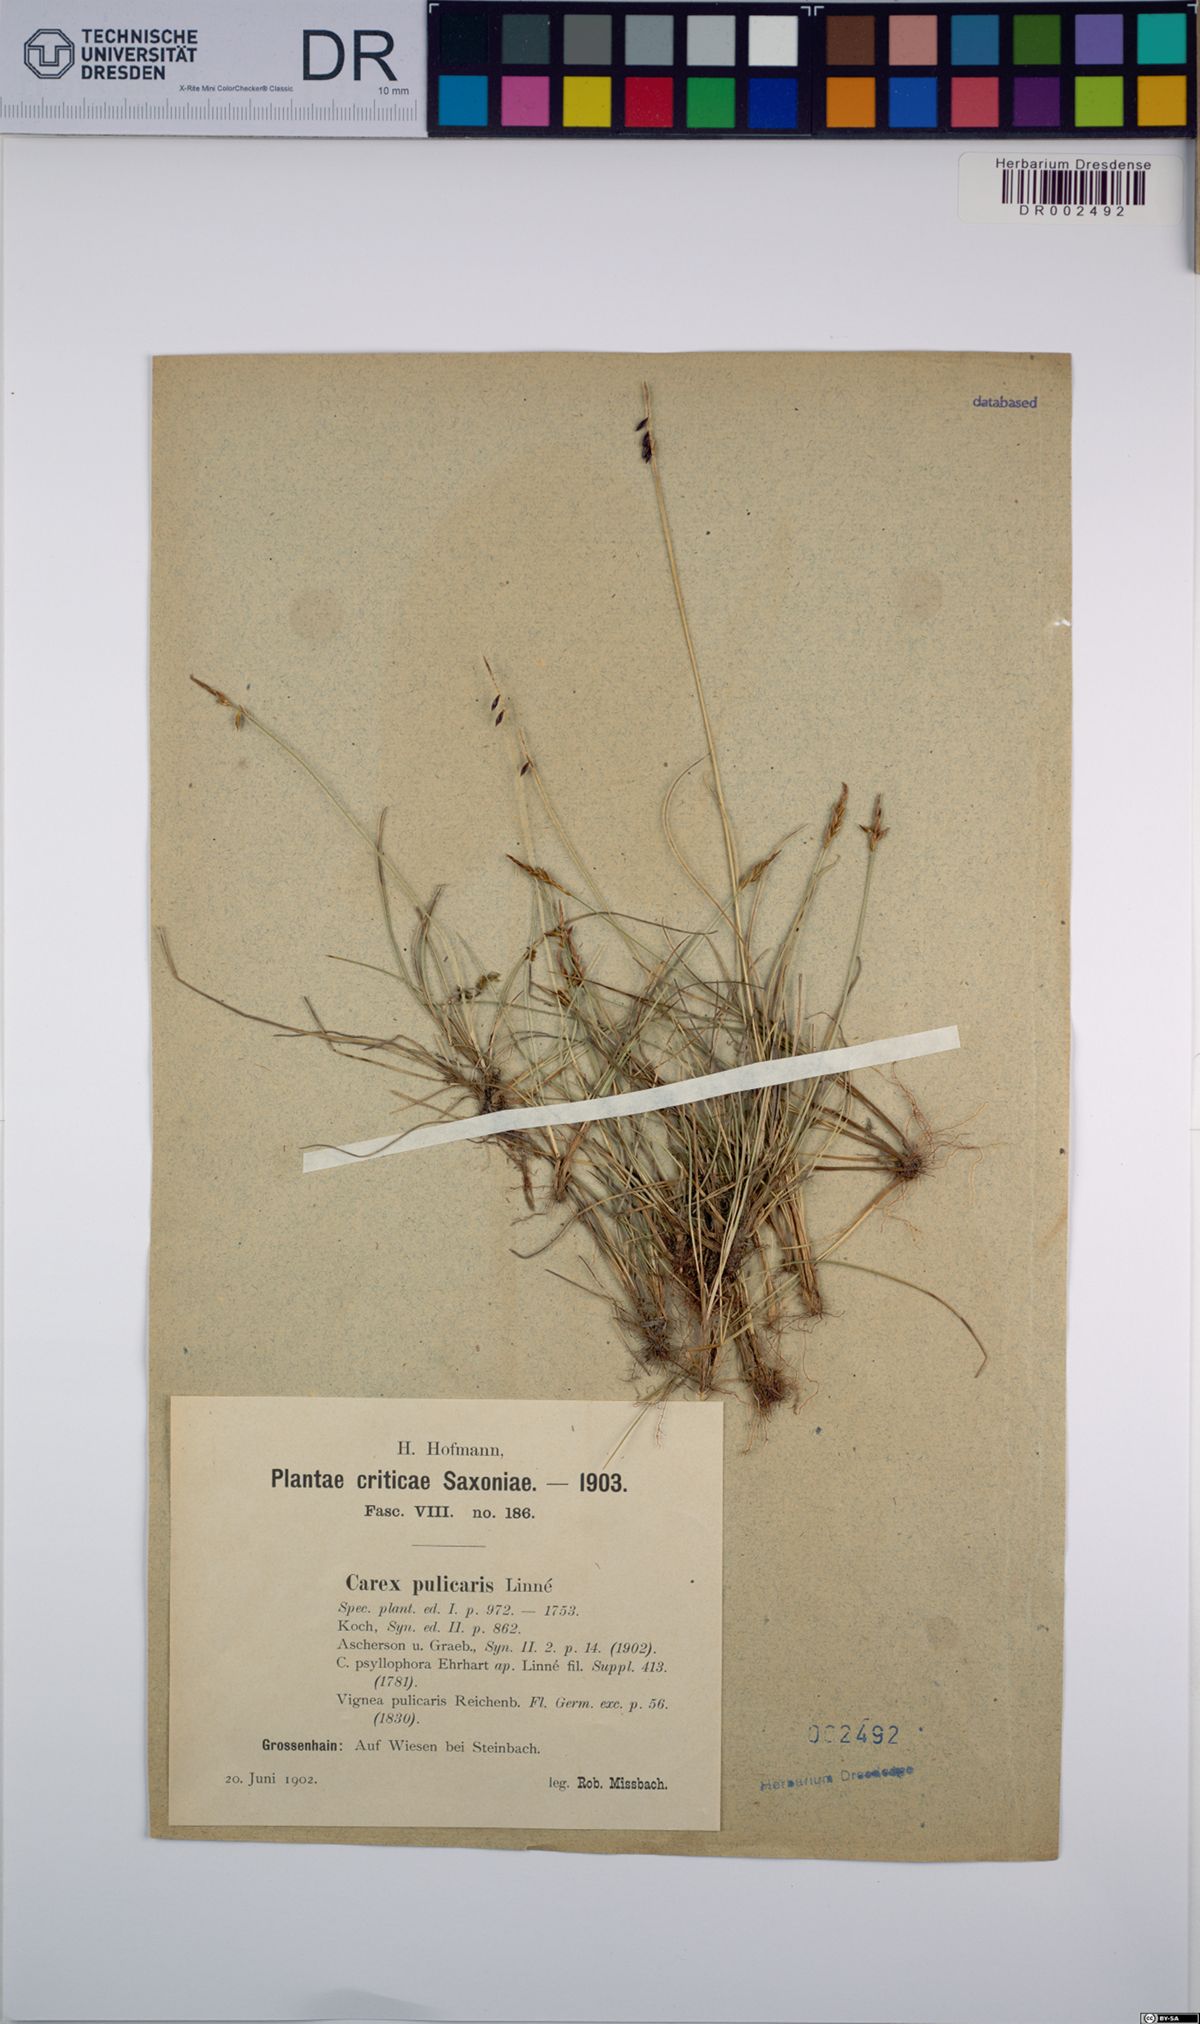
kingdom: Plantae
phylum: Tracheophyta
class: Liliopsida
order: Poales
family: Cyperaceae
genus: Carex
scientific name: Carex pulicaris
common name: Flea sedge
